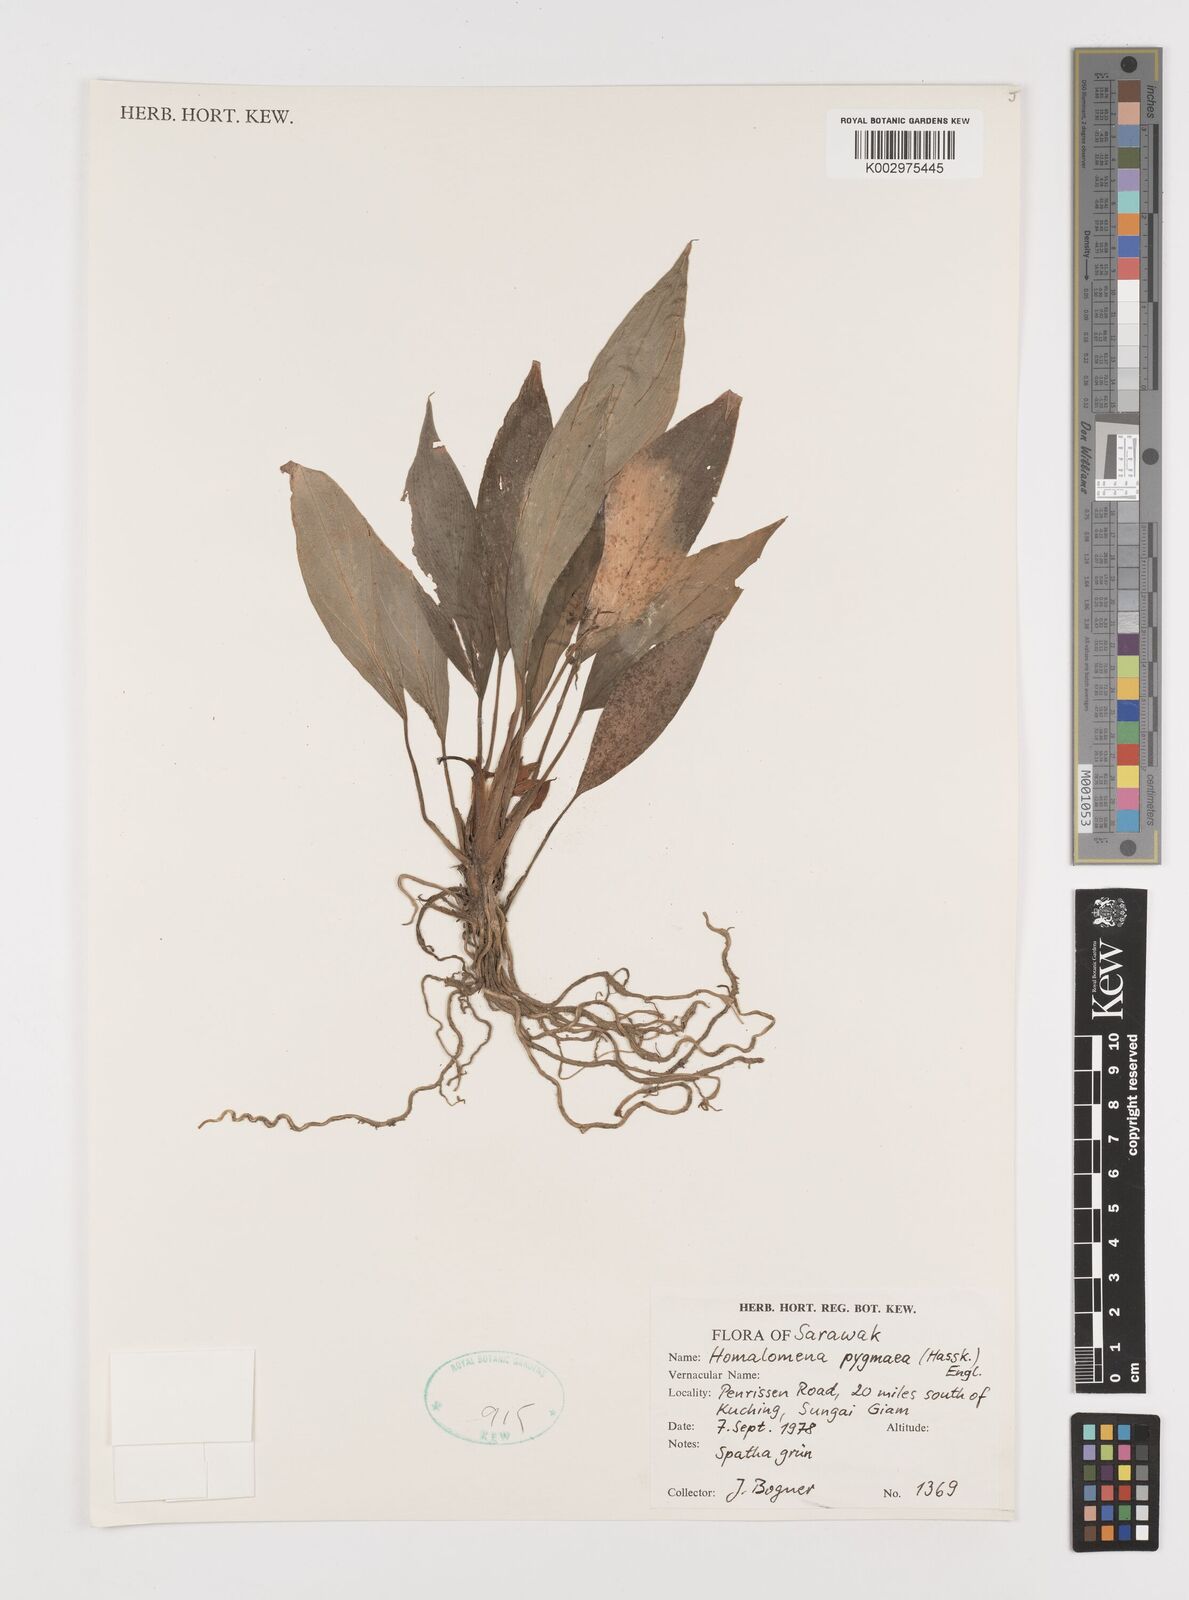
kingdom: Plantae
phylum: Tracheophyta
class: Liliopsida
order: Alismatales
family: Araceae
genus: Homalomena
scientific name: Homalomena humilis
